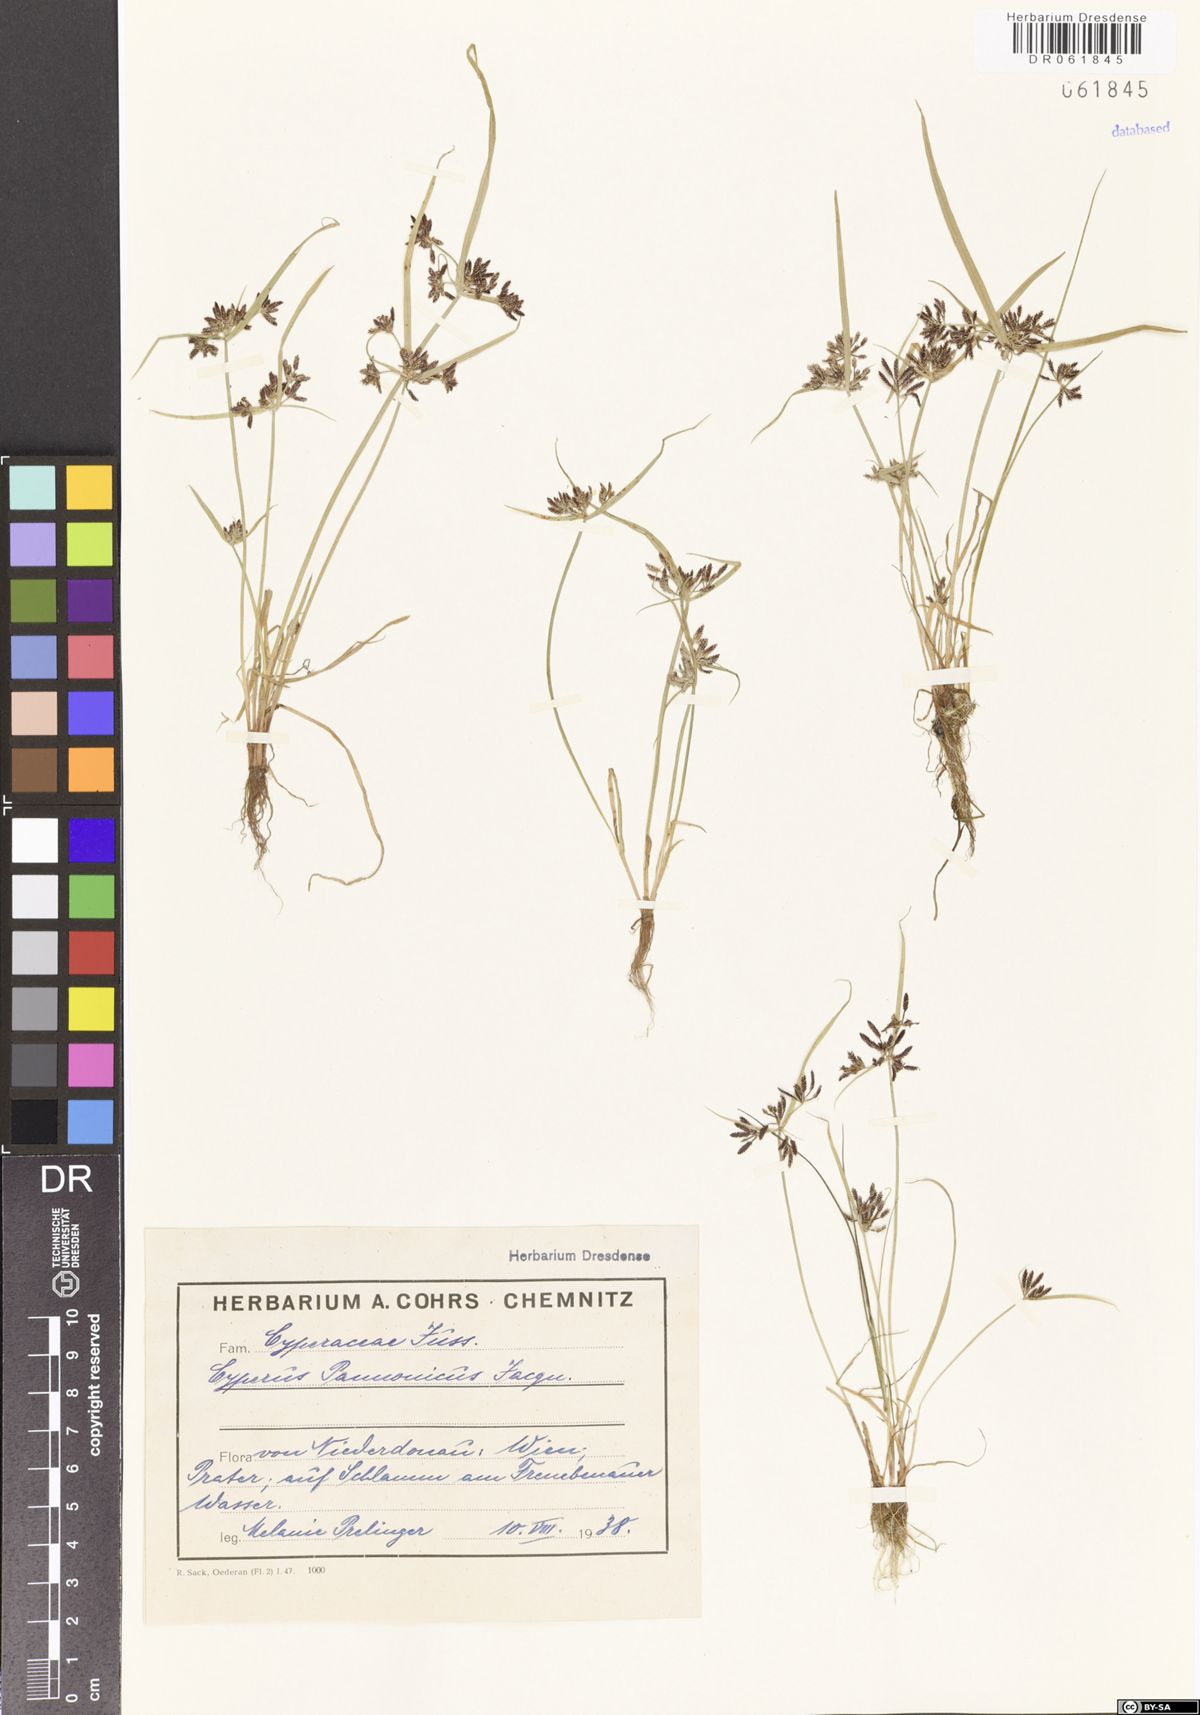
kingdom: Plantae
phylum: Tracheophyta
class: Liliopsida
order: Poales
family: Cyperaceae
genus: Cyperus
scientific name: Cyperus pannonicus
